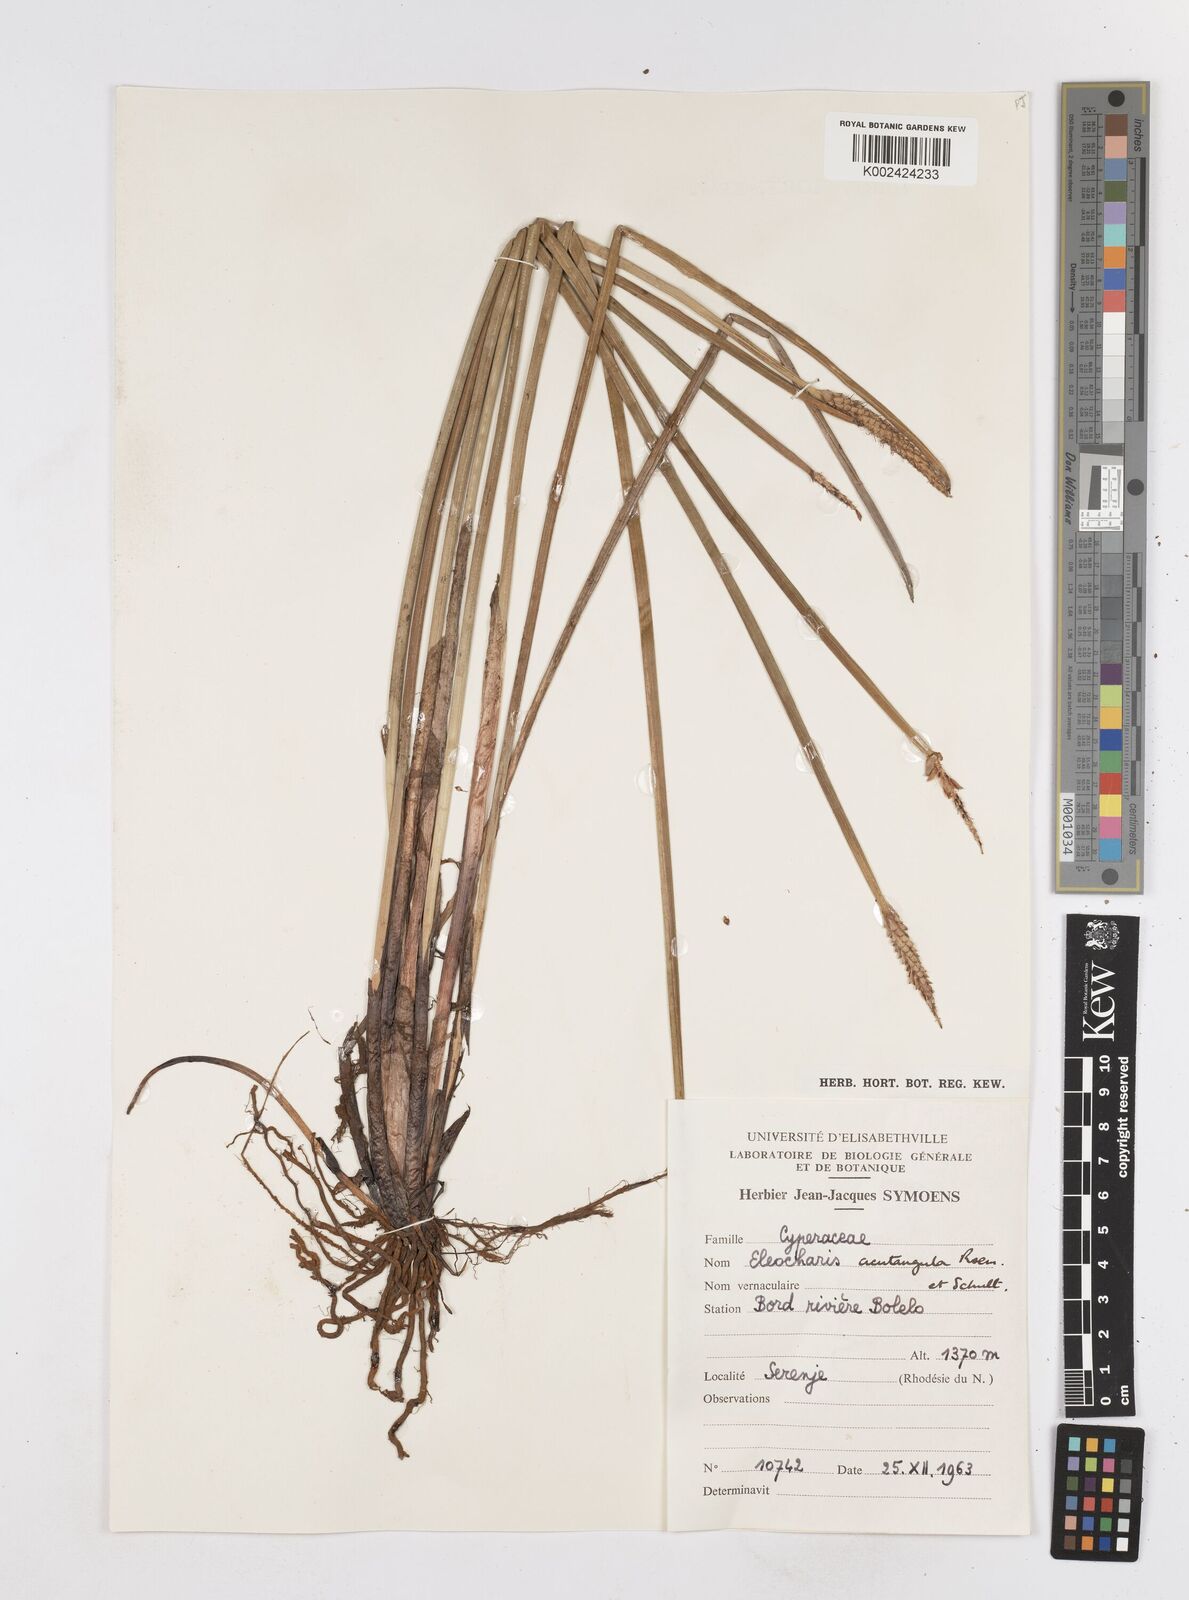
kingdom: Plantae
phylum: Tracheophyta
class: Liliopsida
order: Poales
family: Cyperaceae
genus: Eleocharis
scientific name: Eleocharis acutangula
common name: Acute spikerush
